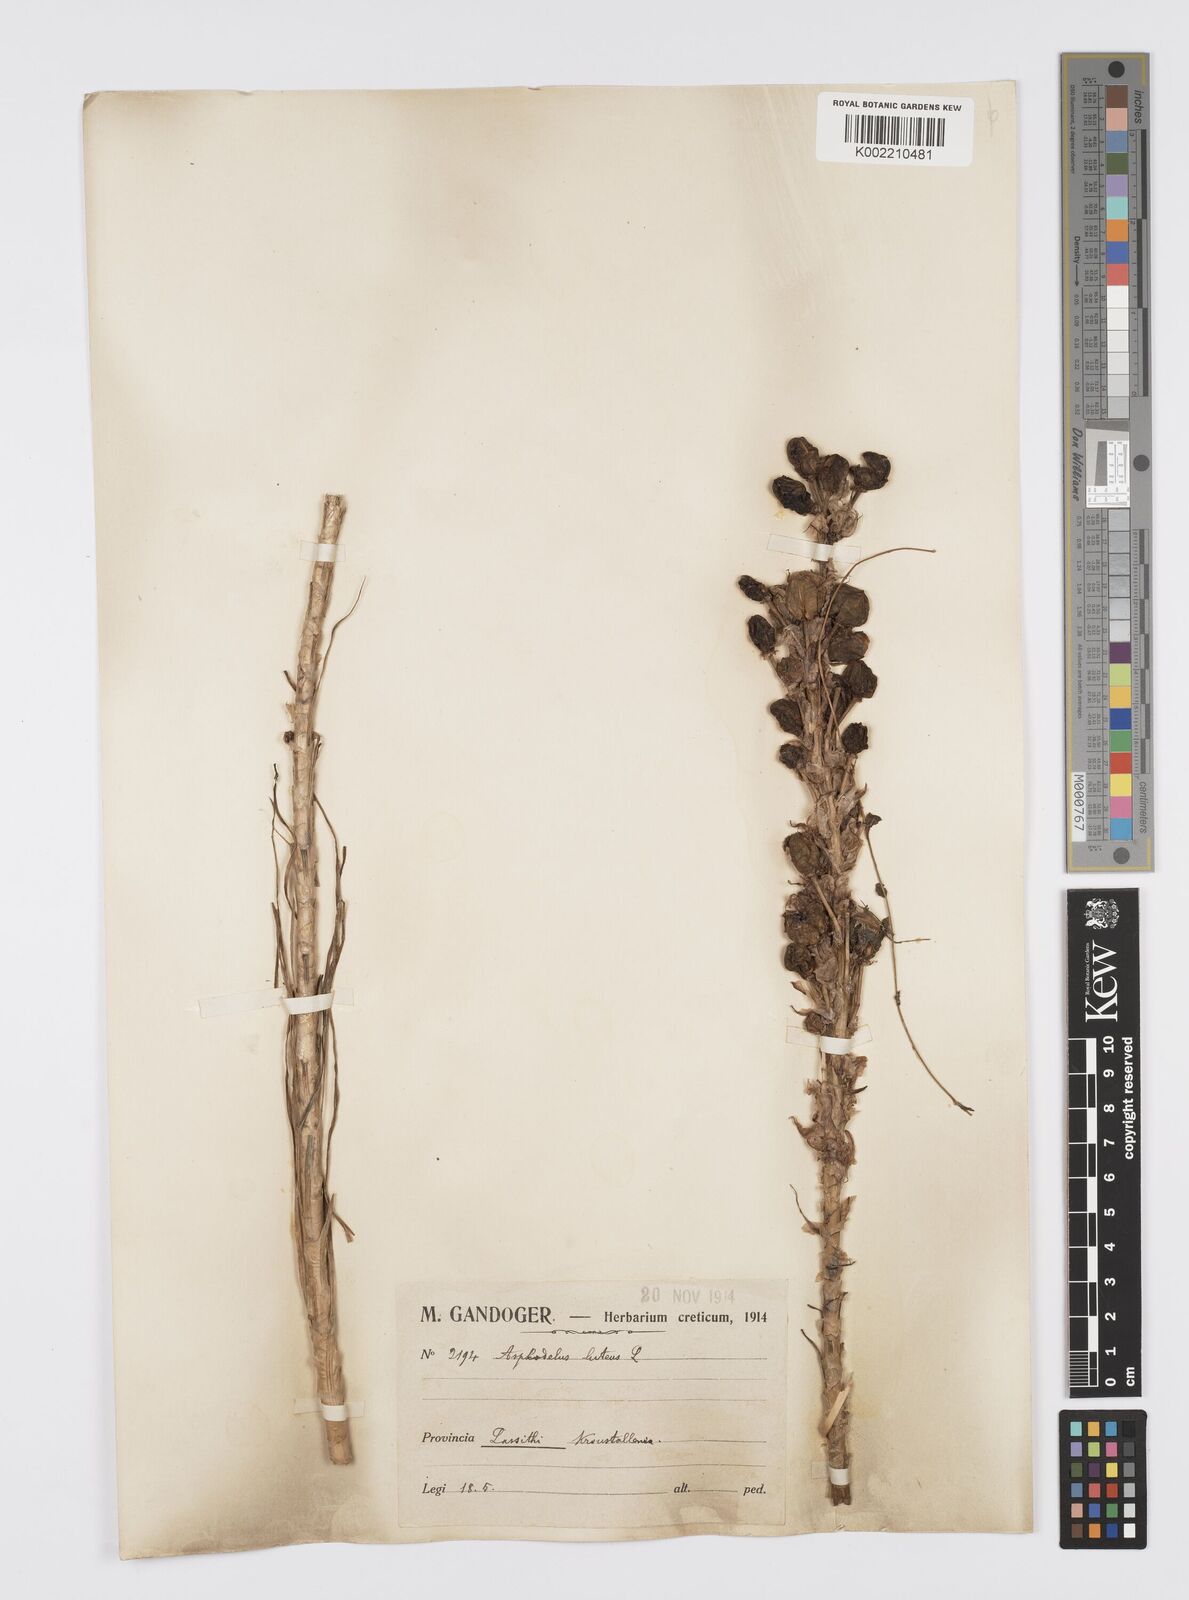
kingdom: Plantae
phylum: Tracheophyta
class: Liliopsida
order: Asparagales
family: Asphodelaceae
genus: Asphodeline
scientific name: Asphodeline lutea
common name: Yellow asphodel
